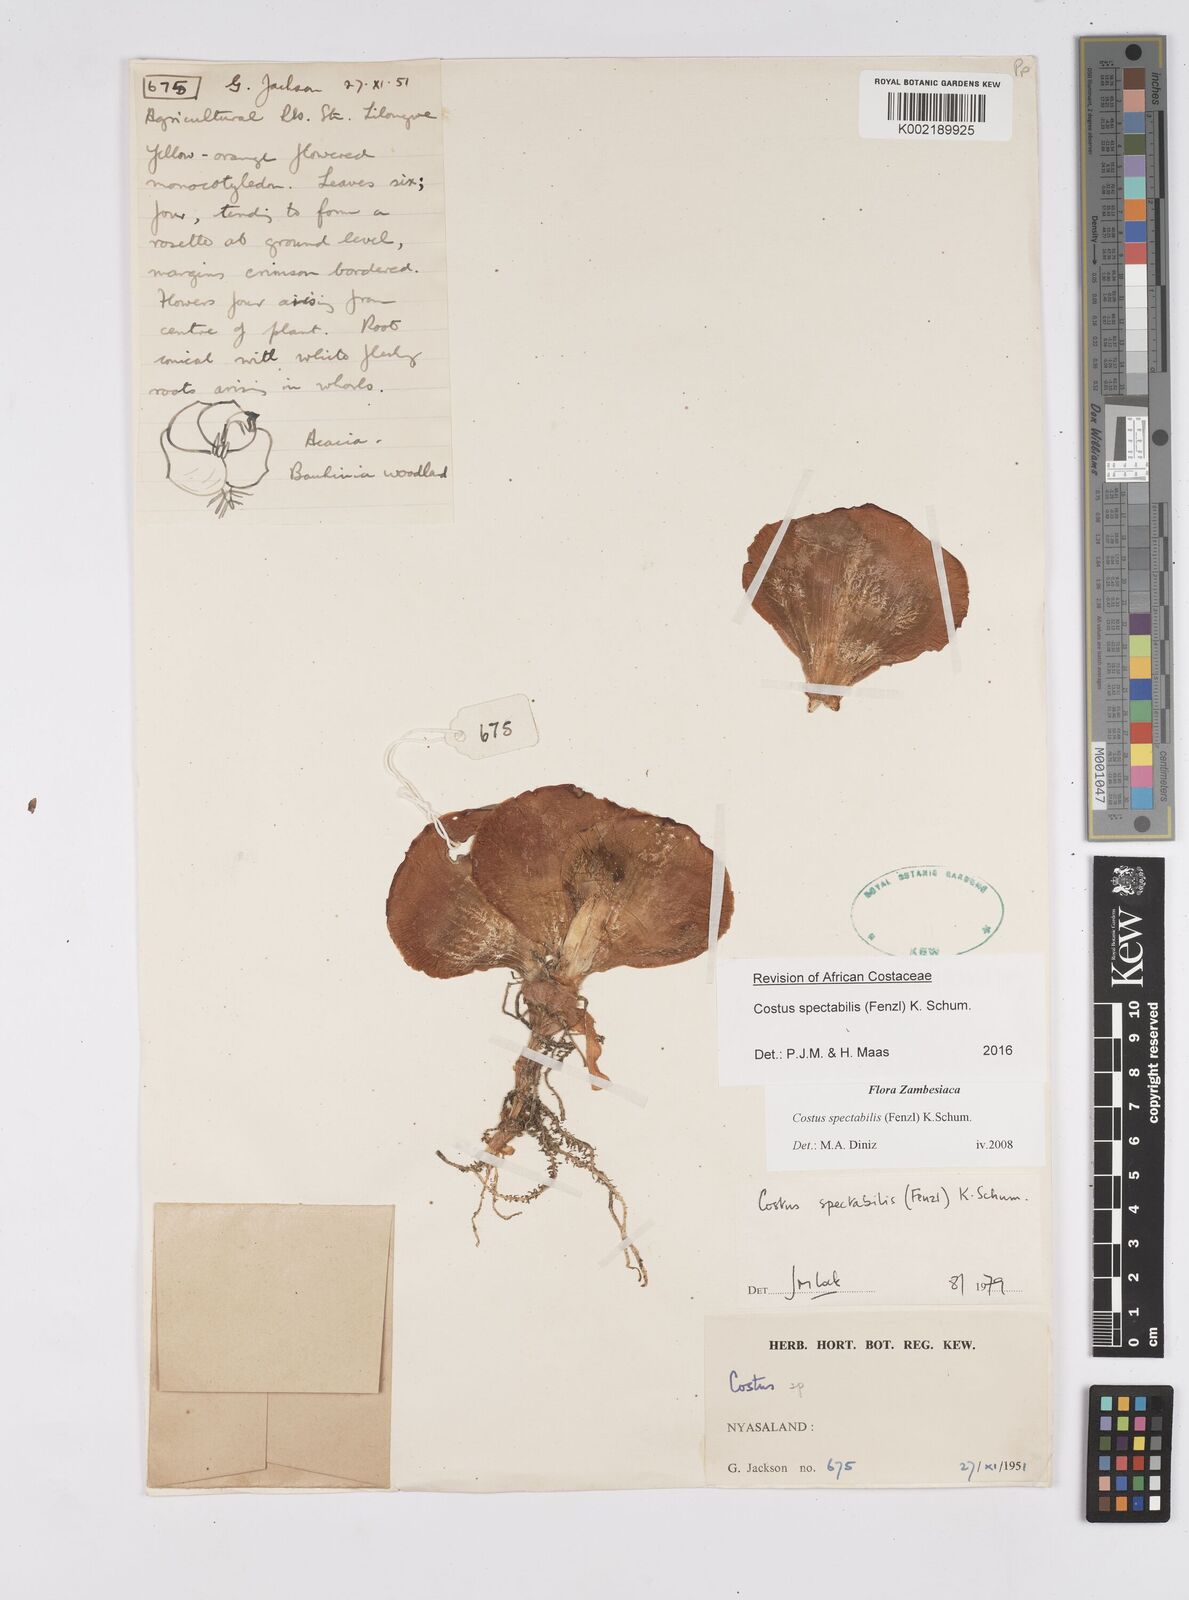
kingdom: Plantae
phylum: Tracheophyta
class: Liliopsida
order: Zingiberales
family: Costaceae
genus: Costus
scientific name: Costus spectabilis
